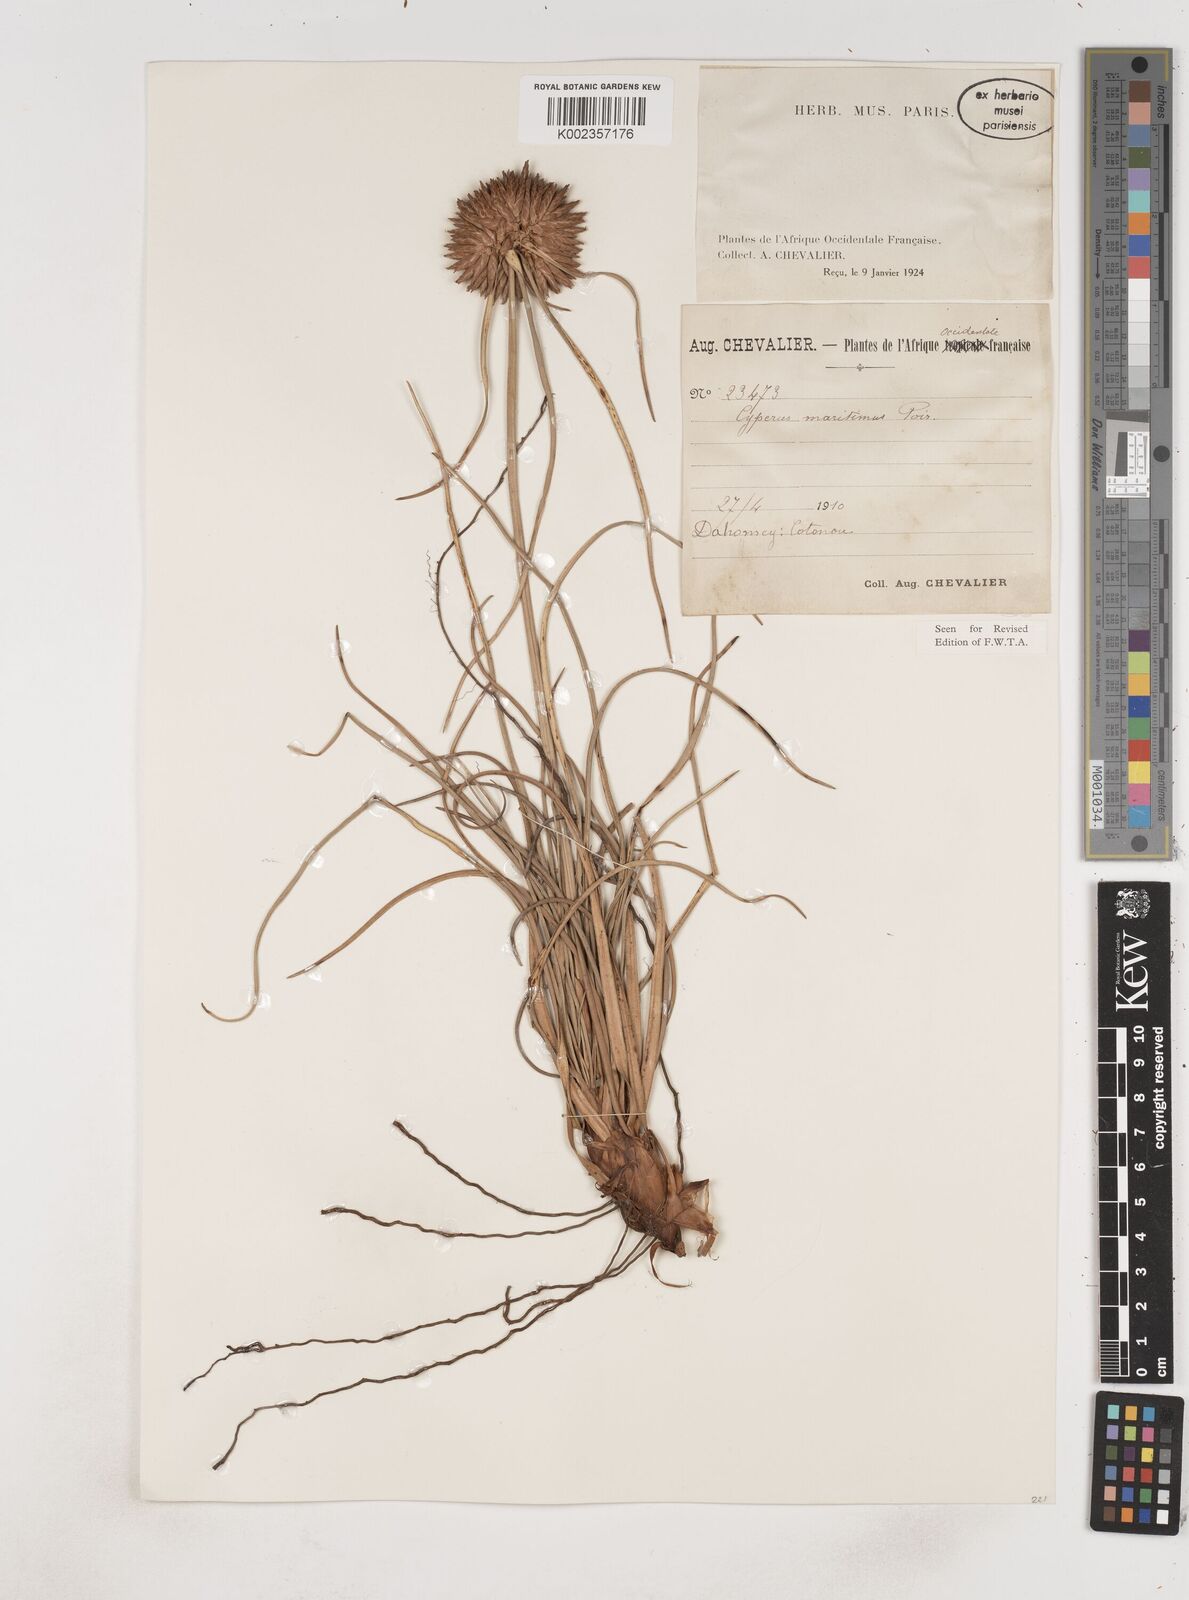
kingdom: Plantae
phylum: Tracheophyta
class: Liliopsida
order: Poales
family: Cyperaceae
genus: Cyperus
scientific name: Cyperus crassipes
